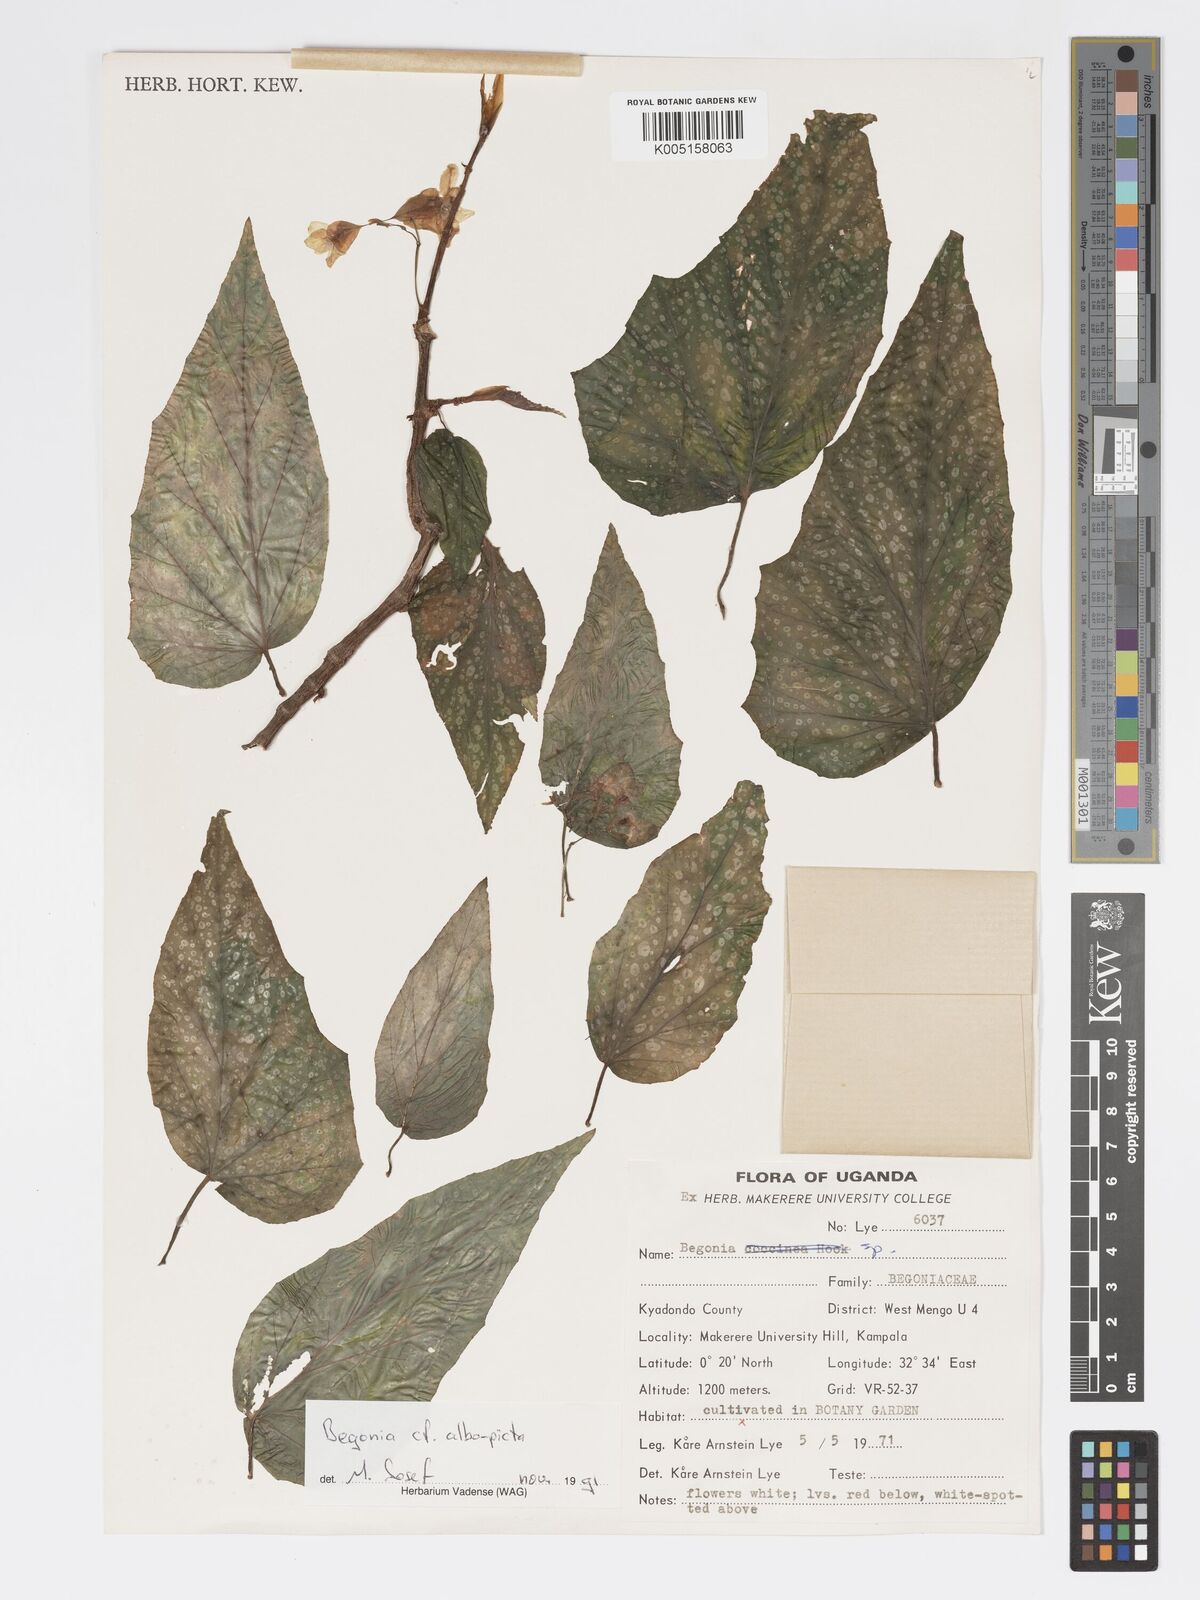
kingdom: Plantae
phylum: Tracheophyta
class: Magnoliopsida
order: Cucurbitales
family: Begoniaceae
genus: Begonia
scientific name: Begonia albopicta
